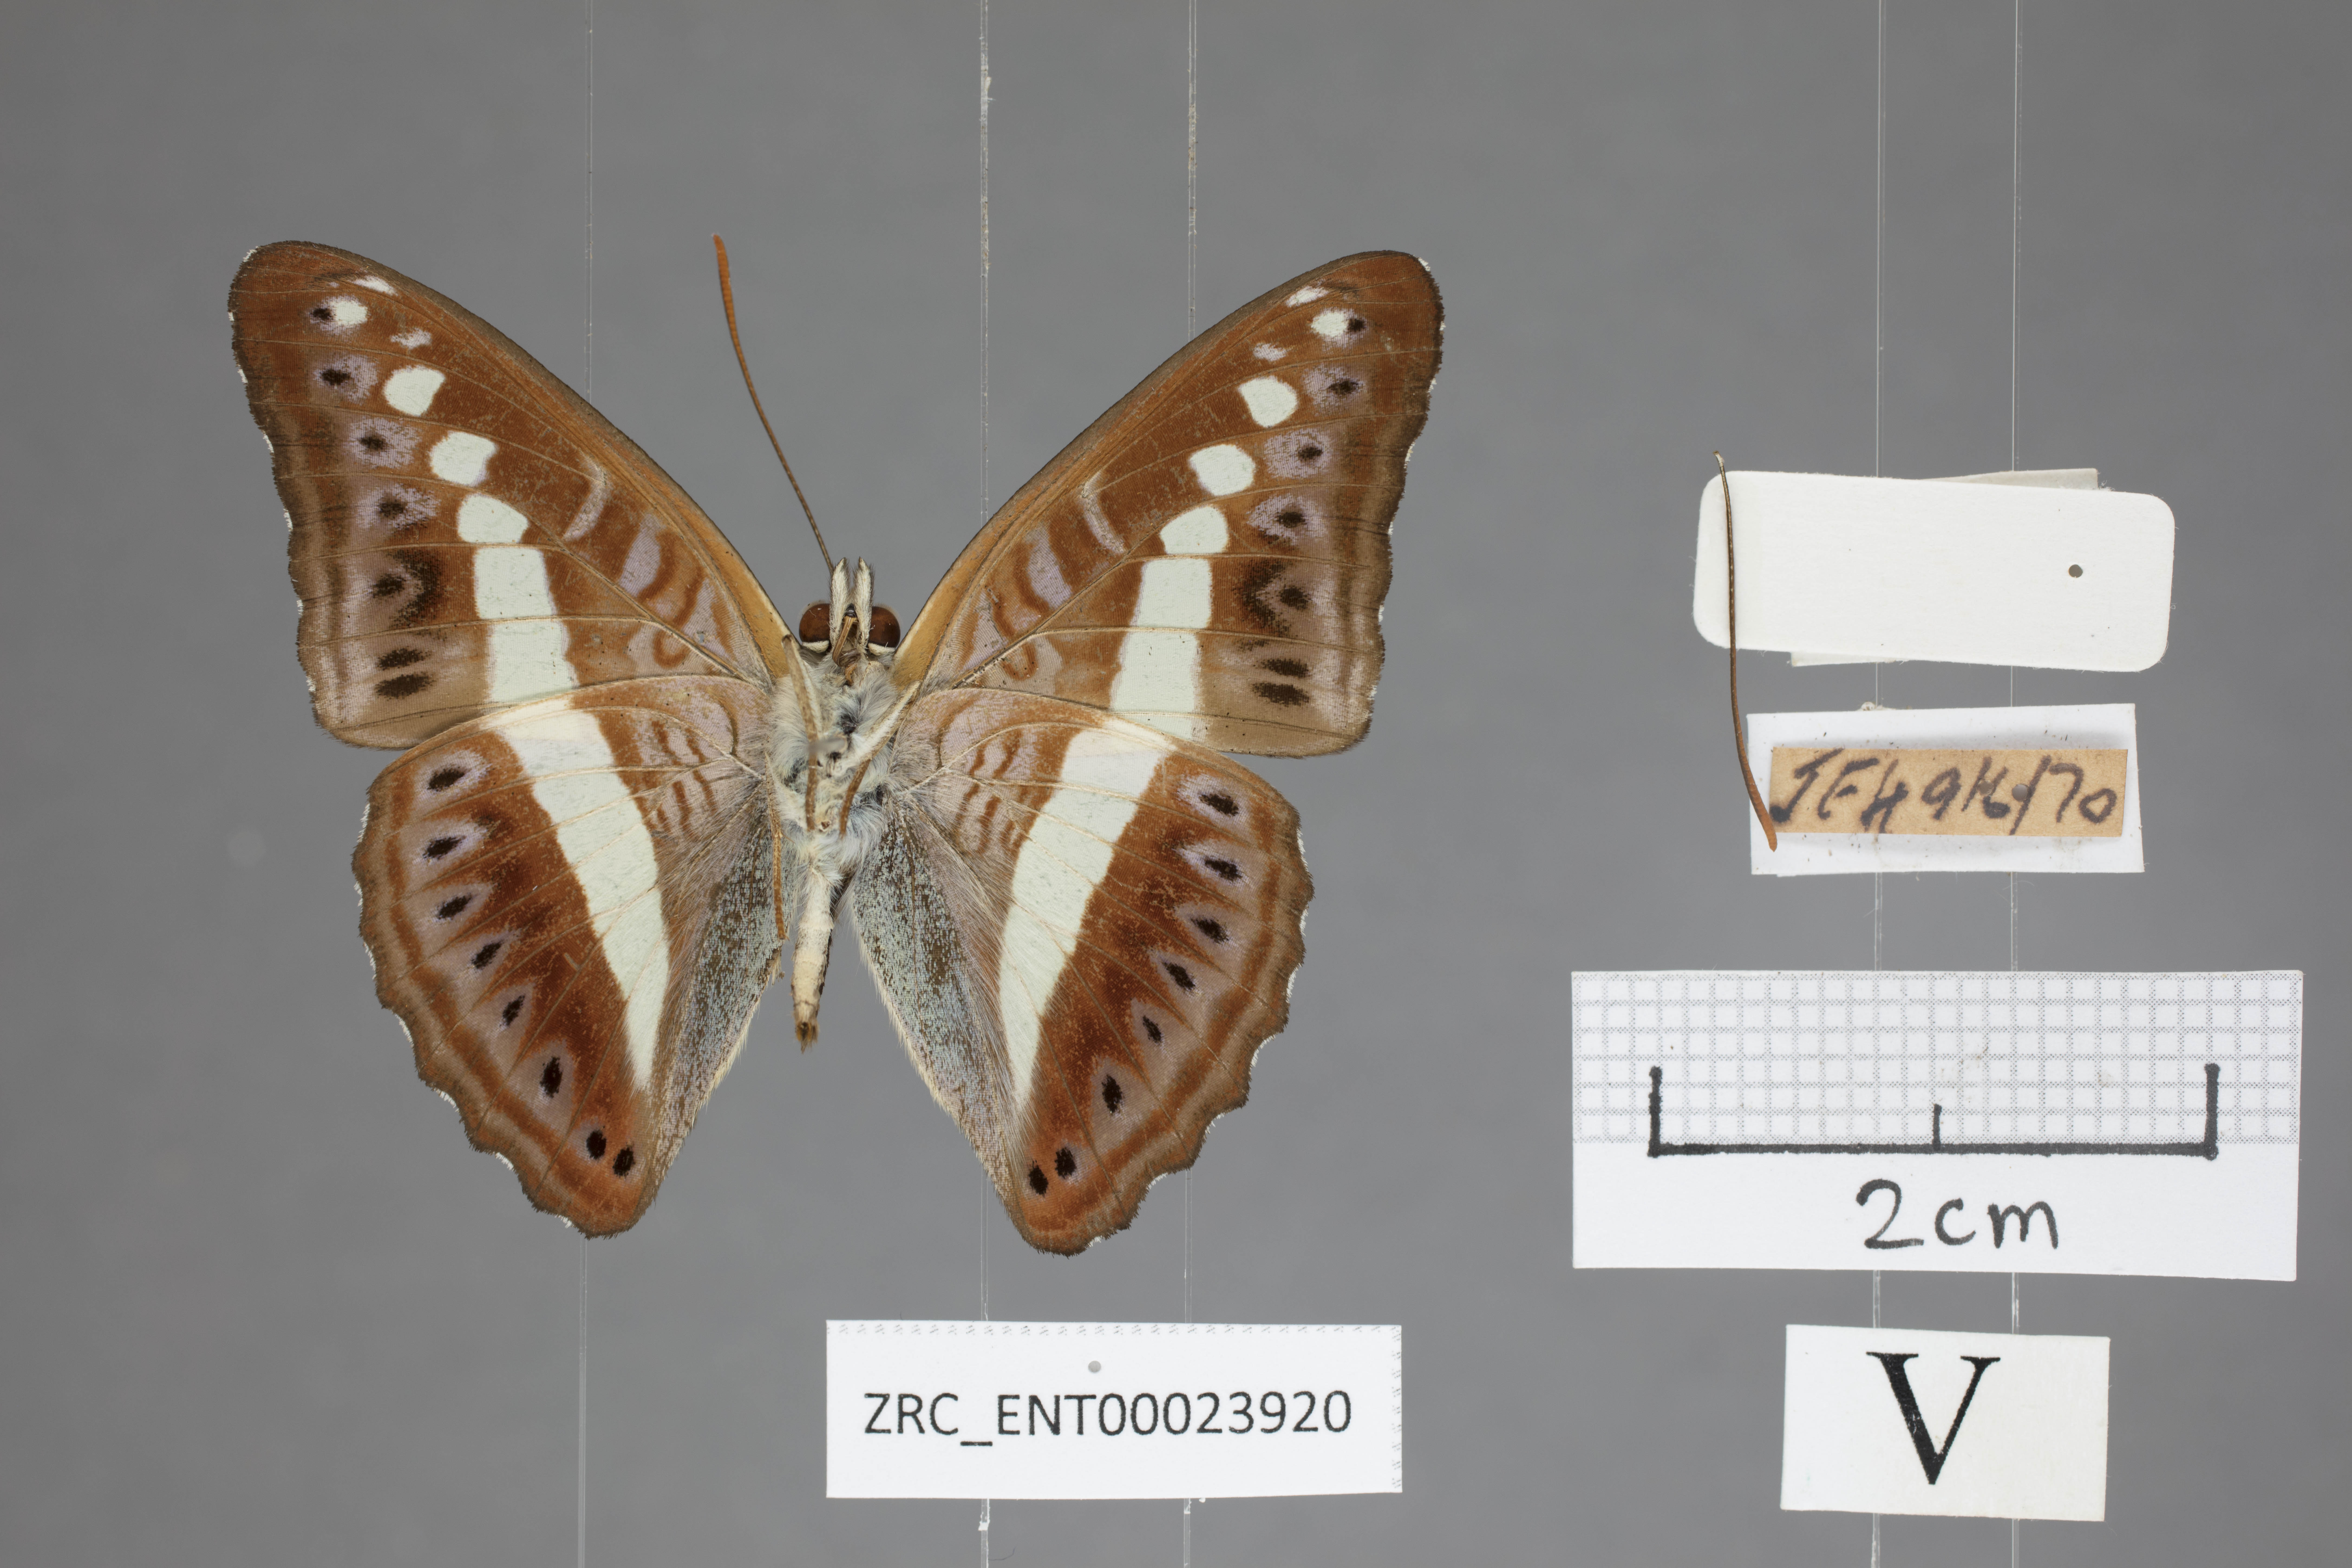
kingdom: Animalia
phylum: Arthropoda
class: Insecta
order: Lepidoptera
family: Nymphalidae
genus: Limenitis
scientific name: Limenitis Sumalia daraxa
